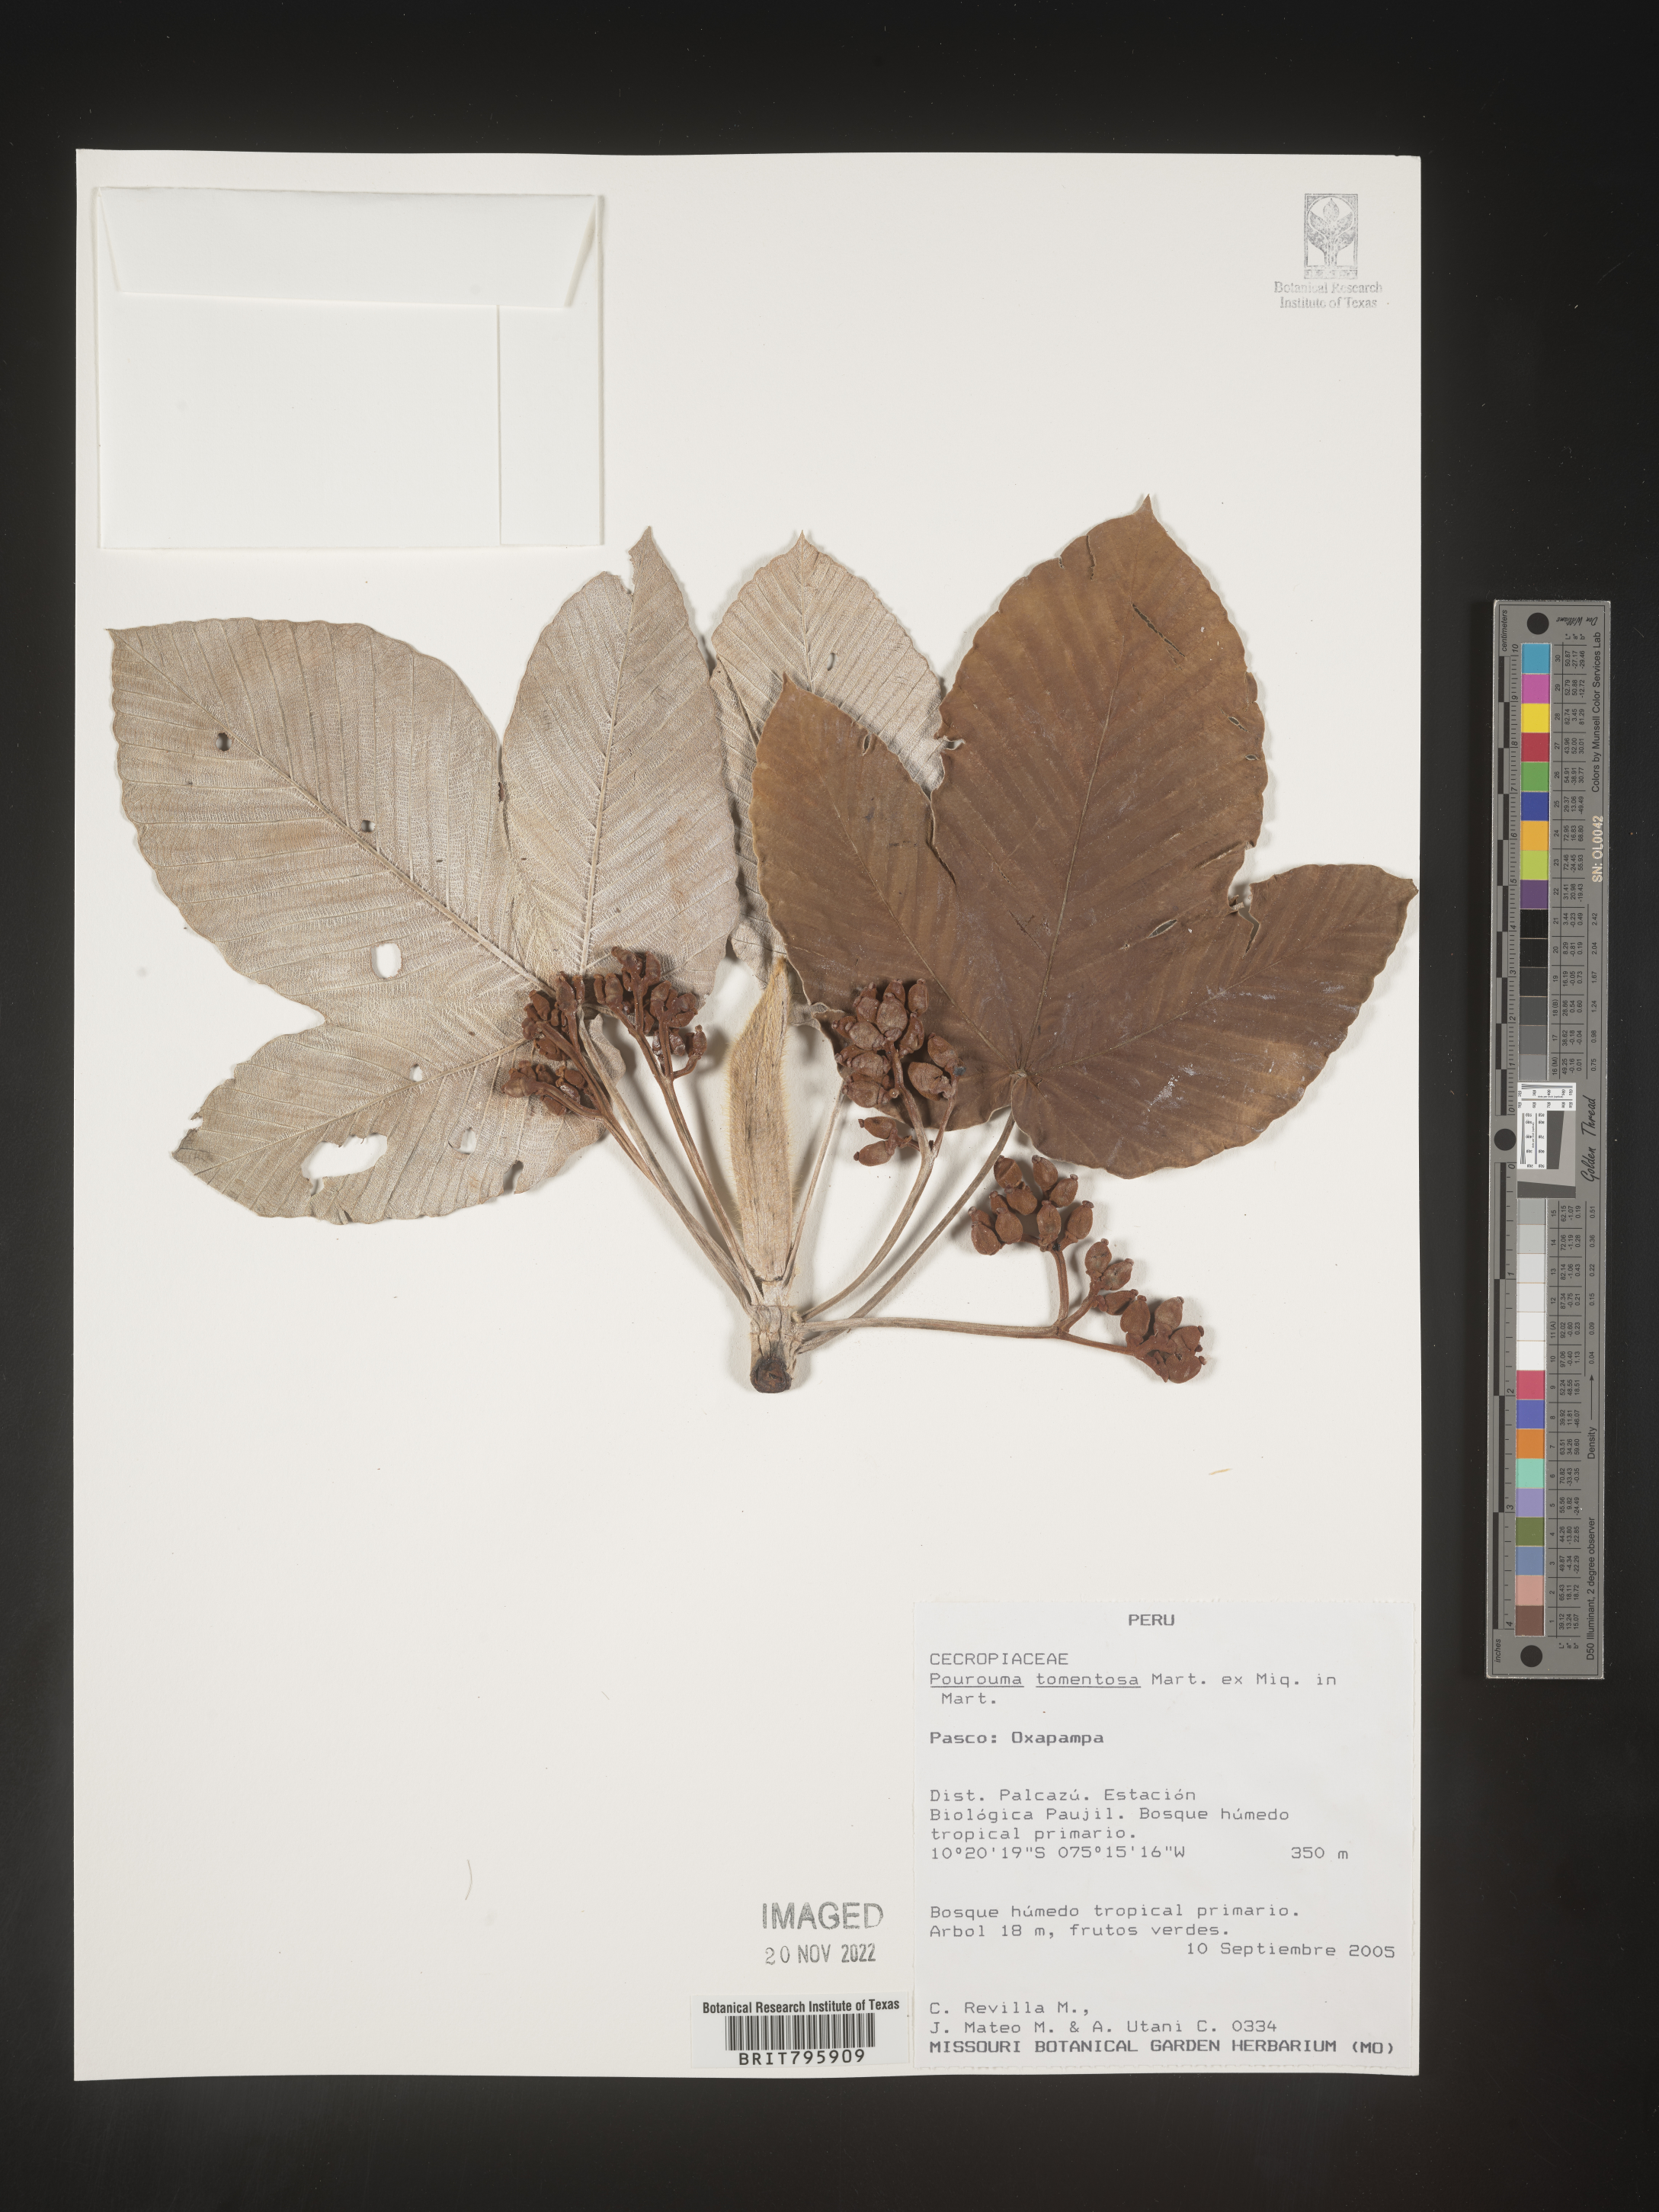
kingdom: Plantae
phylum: Tracheophyta
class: Magnoliopsida
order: Rosales
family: Urticaceae
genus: Pourouma
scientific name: Pourouma
